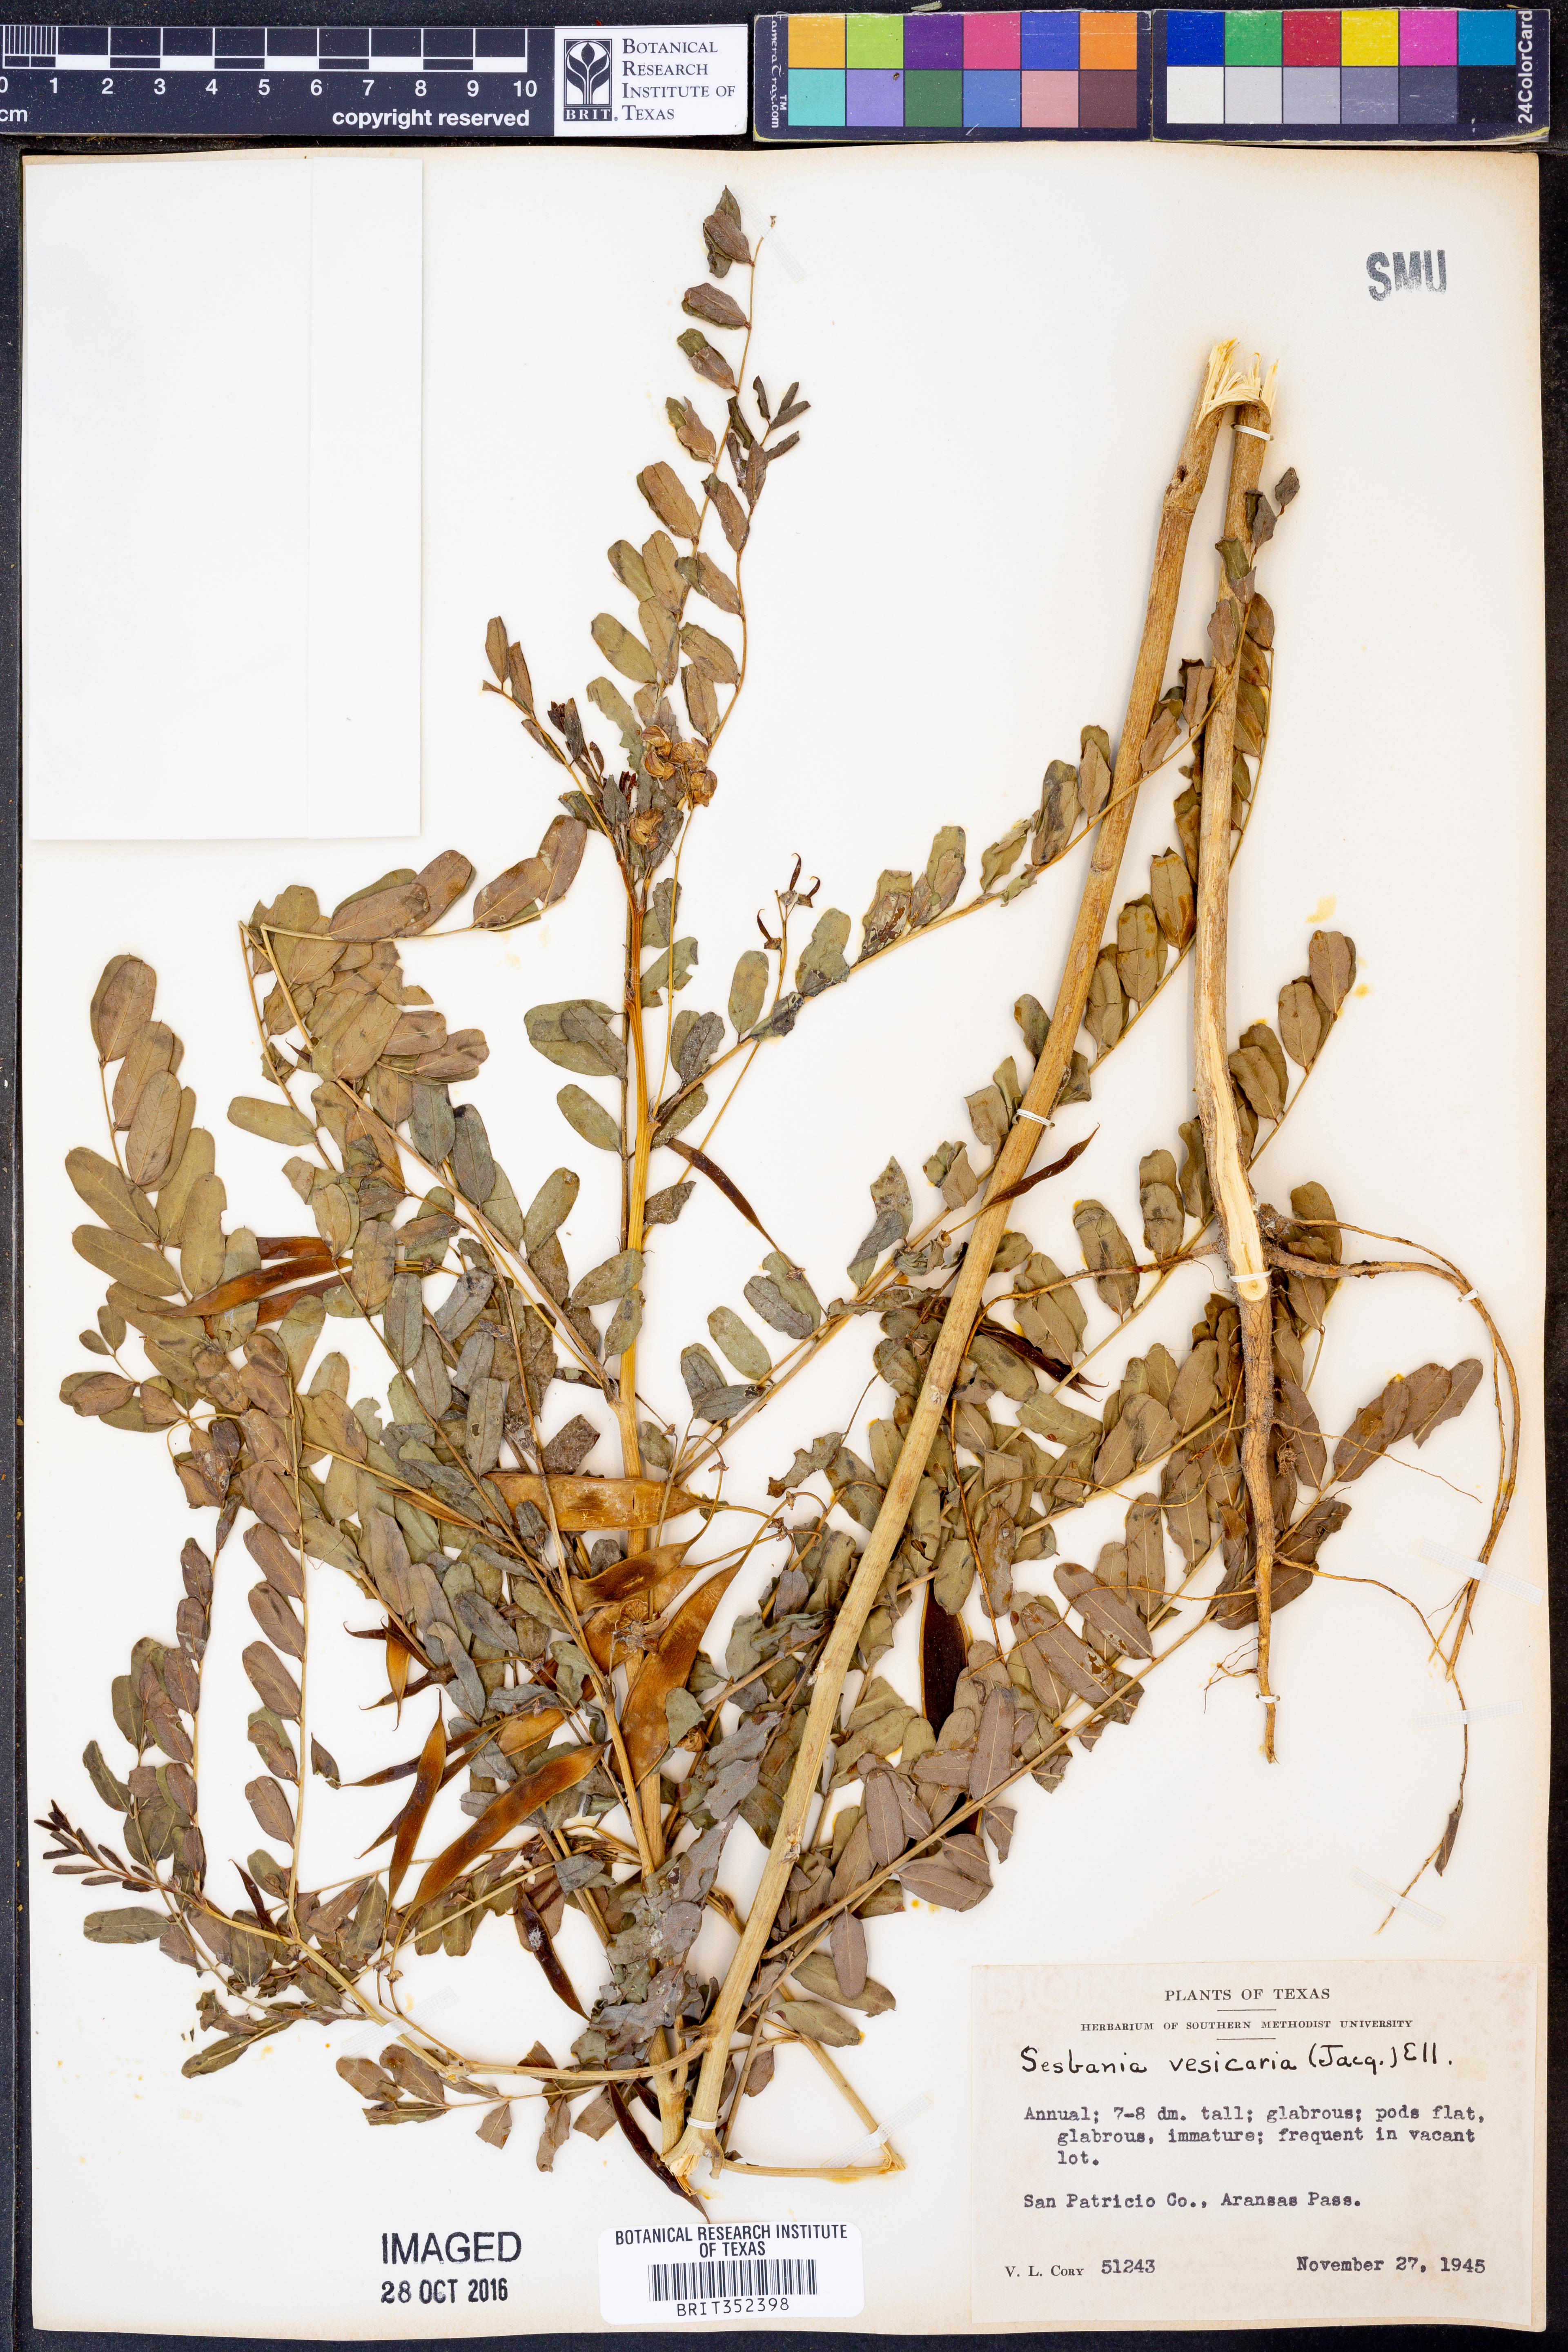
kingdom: Plantae
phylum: Tracheophyta
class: Magnoliopsida
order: Fabales
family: Fabaceae
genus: Sesbania
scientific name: Sesbania vesicaria
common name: Bagpod
